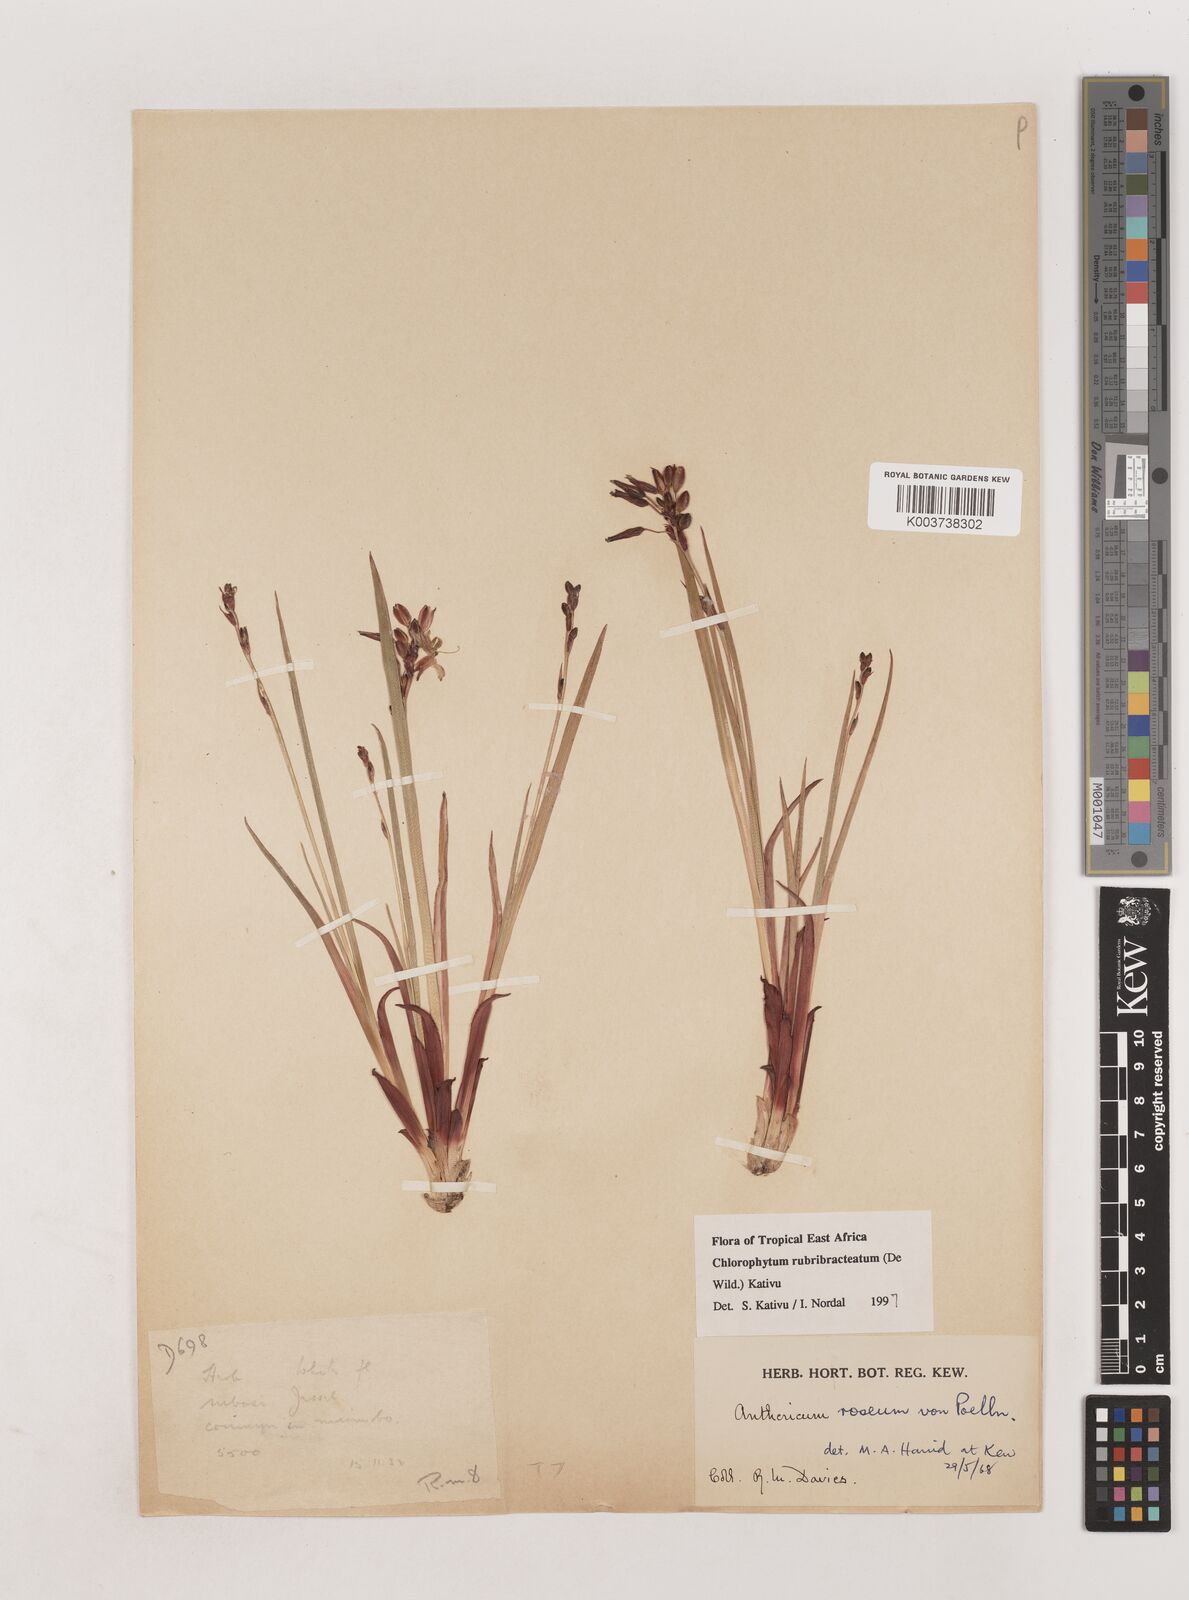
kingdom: Plantae
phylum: Tracheophyta
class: Liliopsida
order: Asparagales
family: Asparagaceae
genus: Chlorophytum
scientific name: Chlorophytum rubribracteatum
